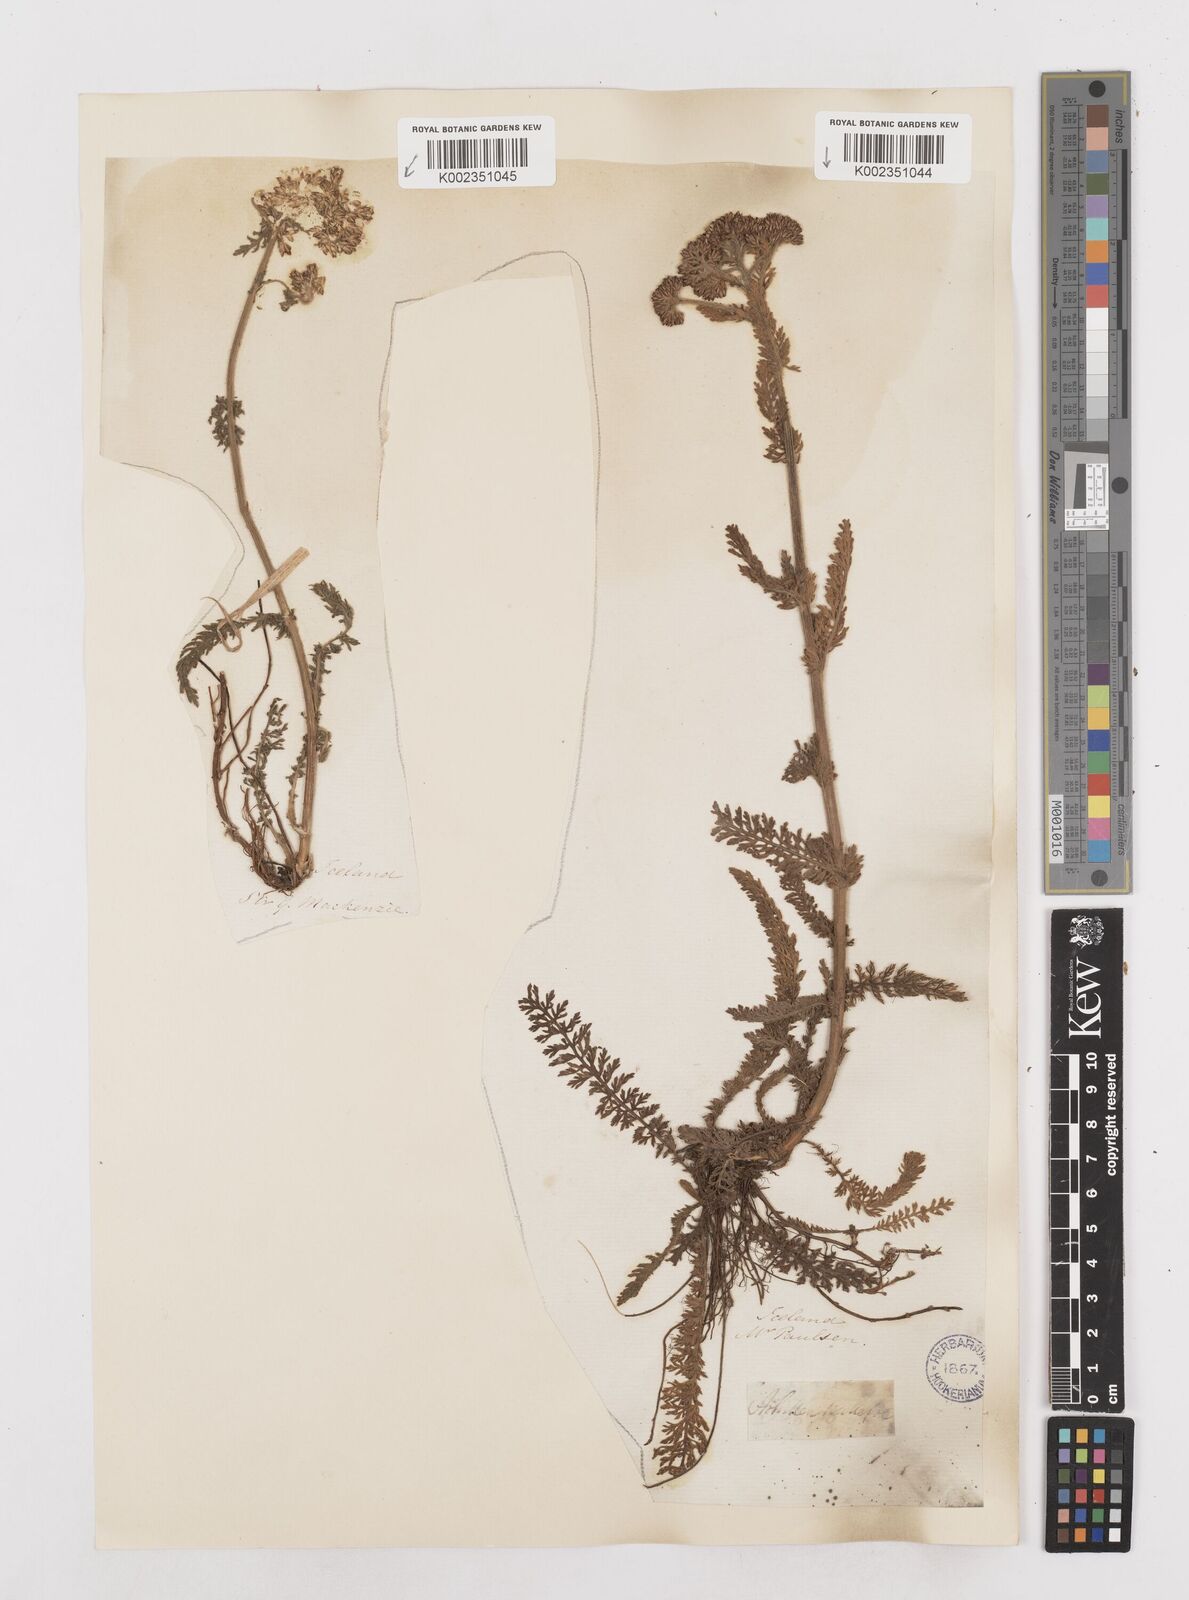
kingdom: Plantae
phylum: Tracheophyta
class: Magnoliopsida
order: Asterales
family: Asteraceae
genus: Achillea
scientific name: Achillea millefolium
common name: Yarrow
